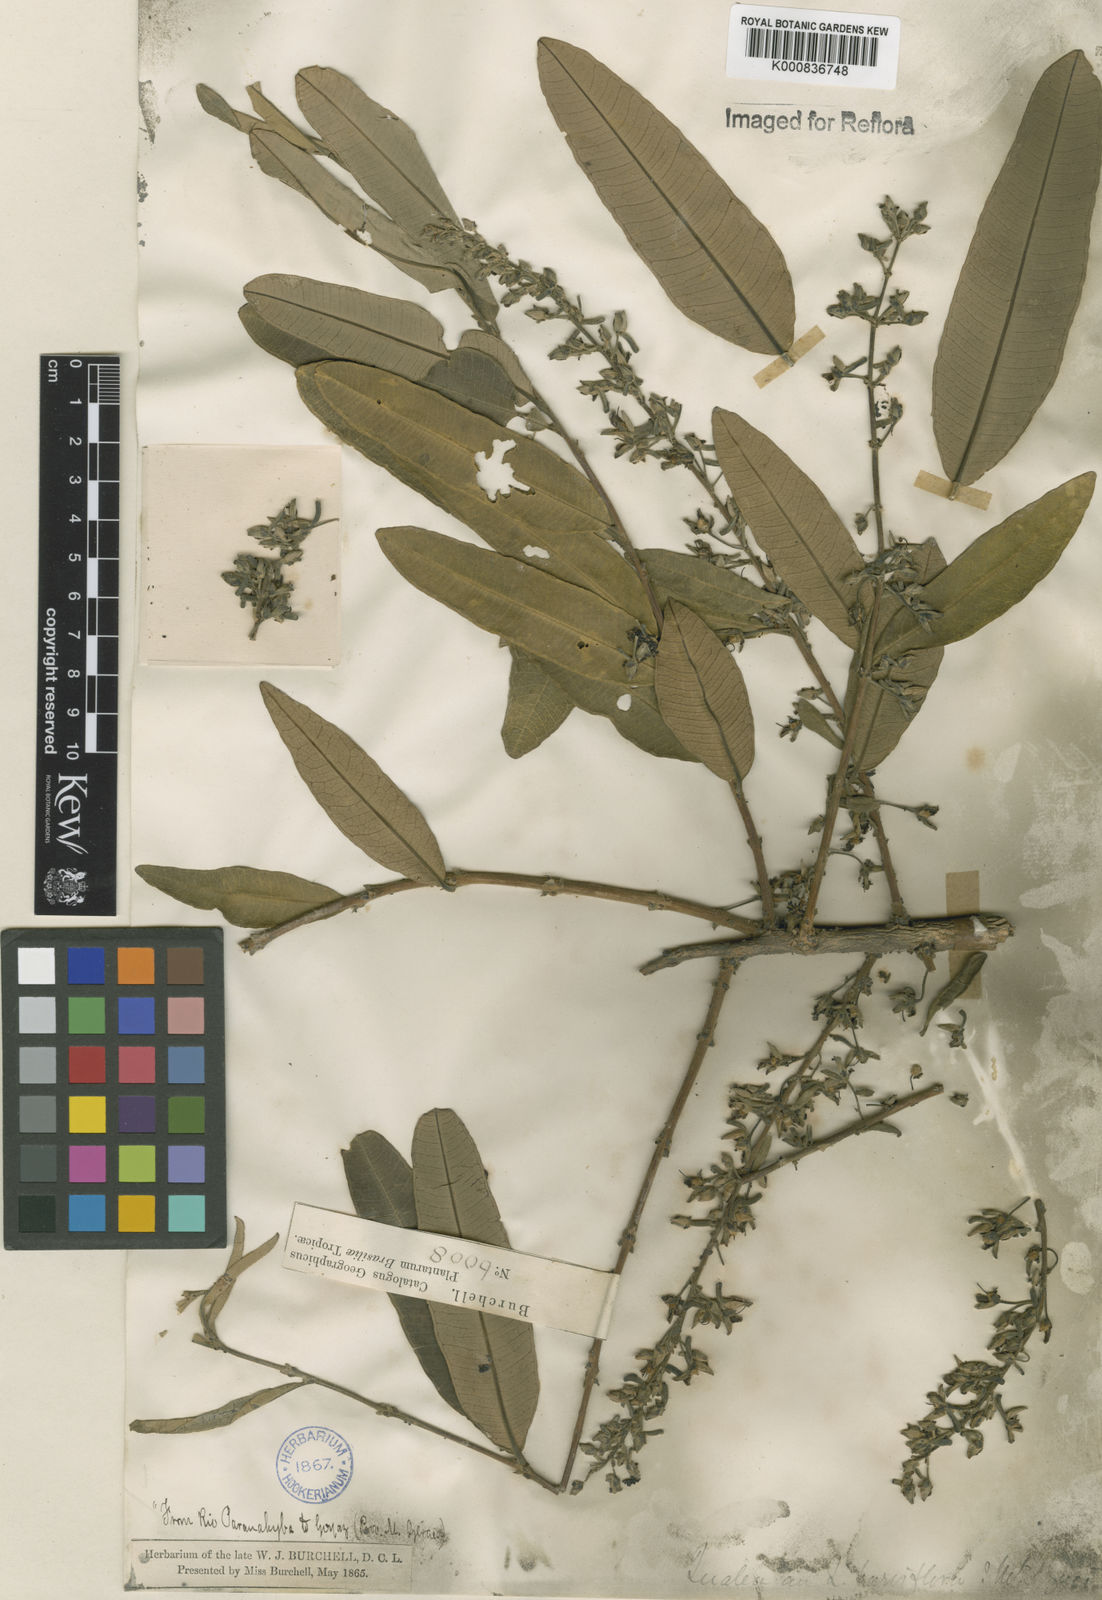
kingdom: Plantae
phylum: Tracheophyta
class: Magnoliopsida
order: Myrtales
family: Vochysiaceae
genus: Qualea
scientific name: Qualea parviflora
